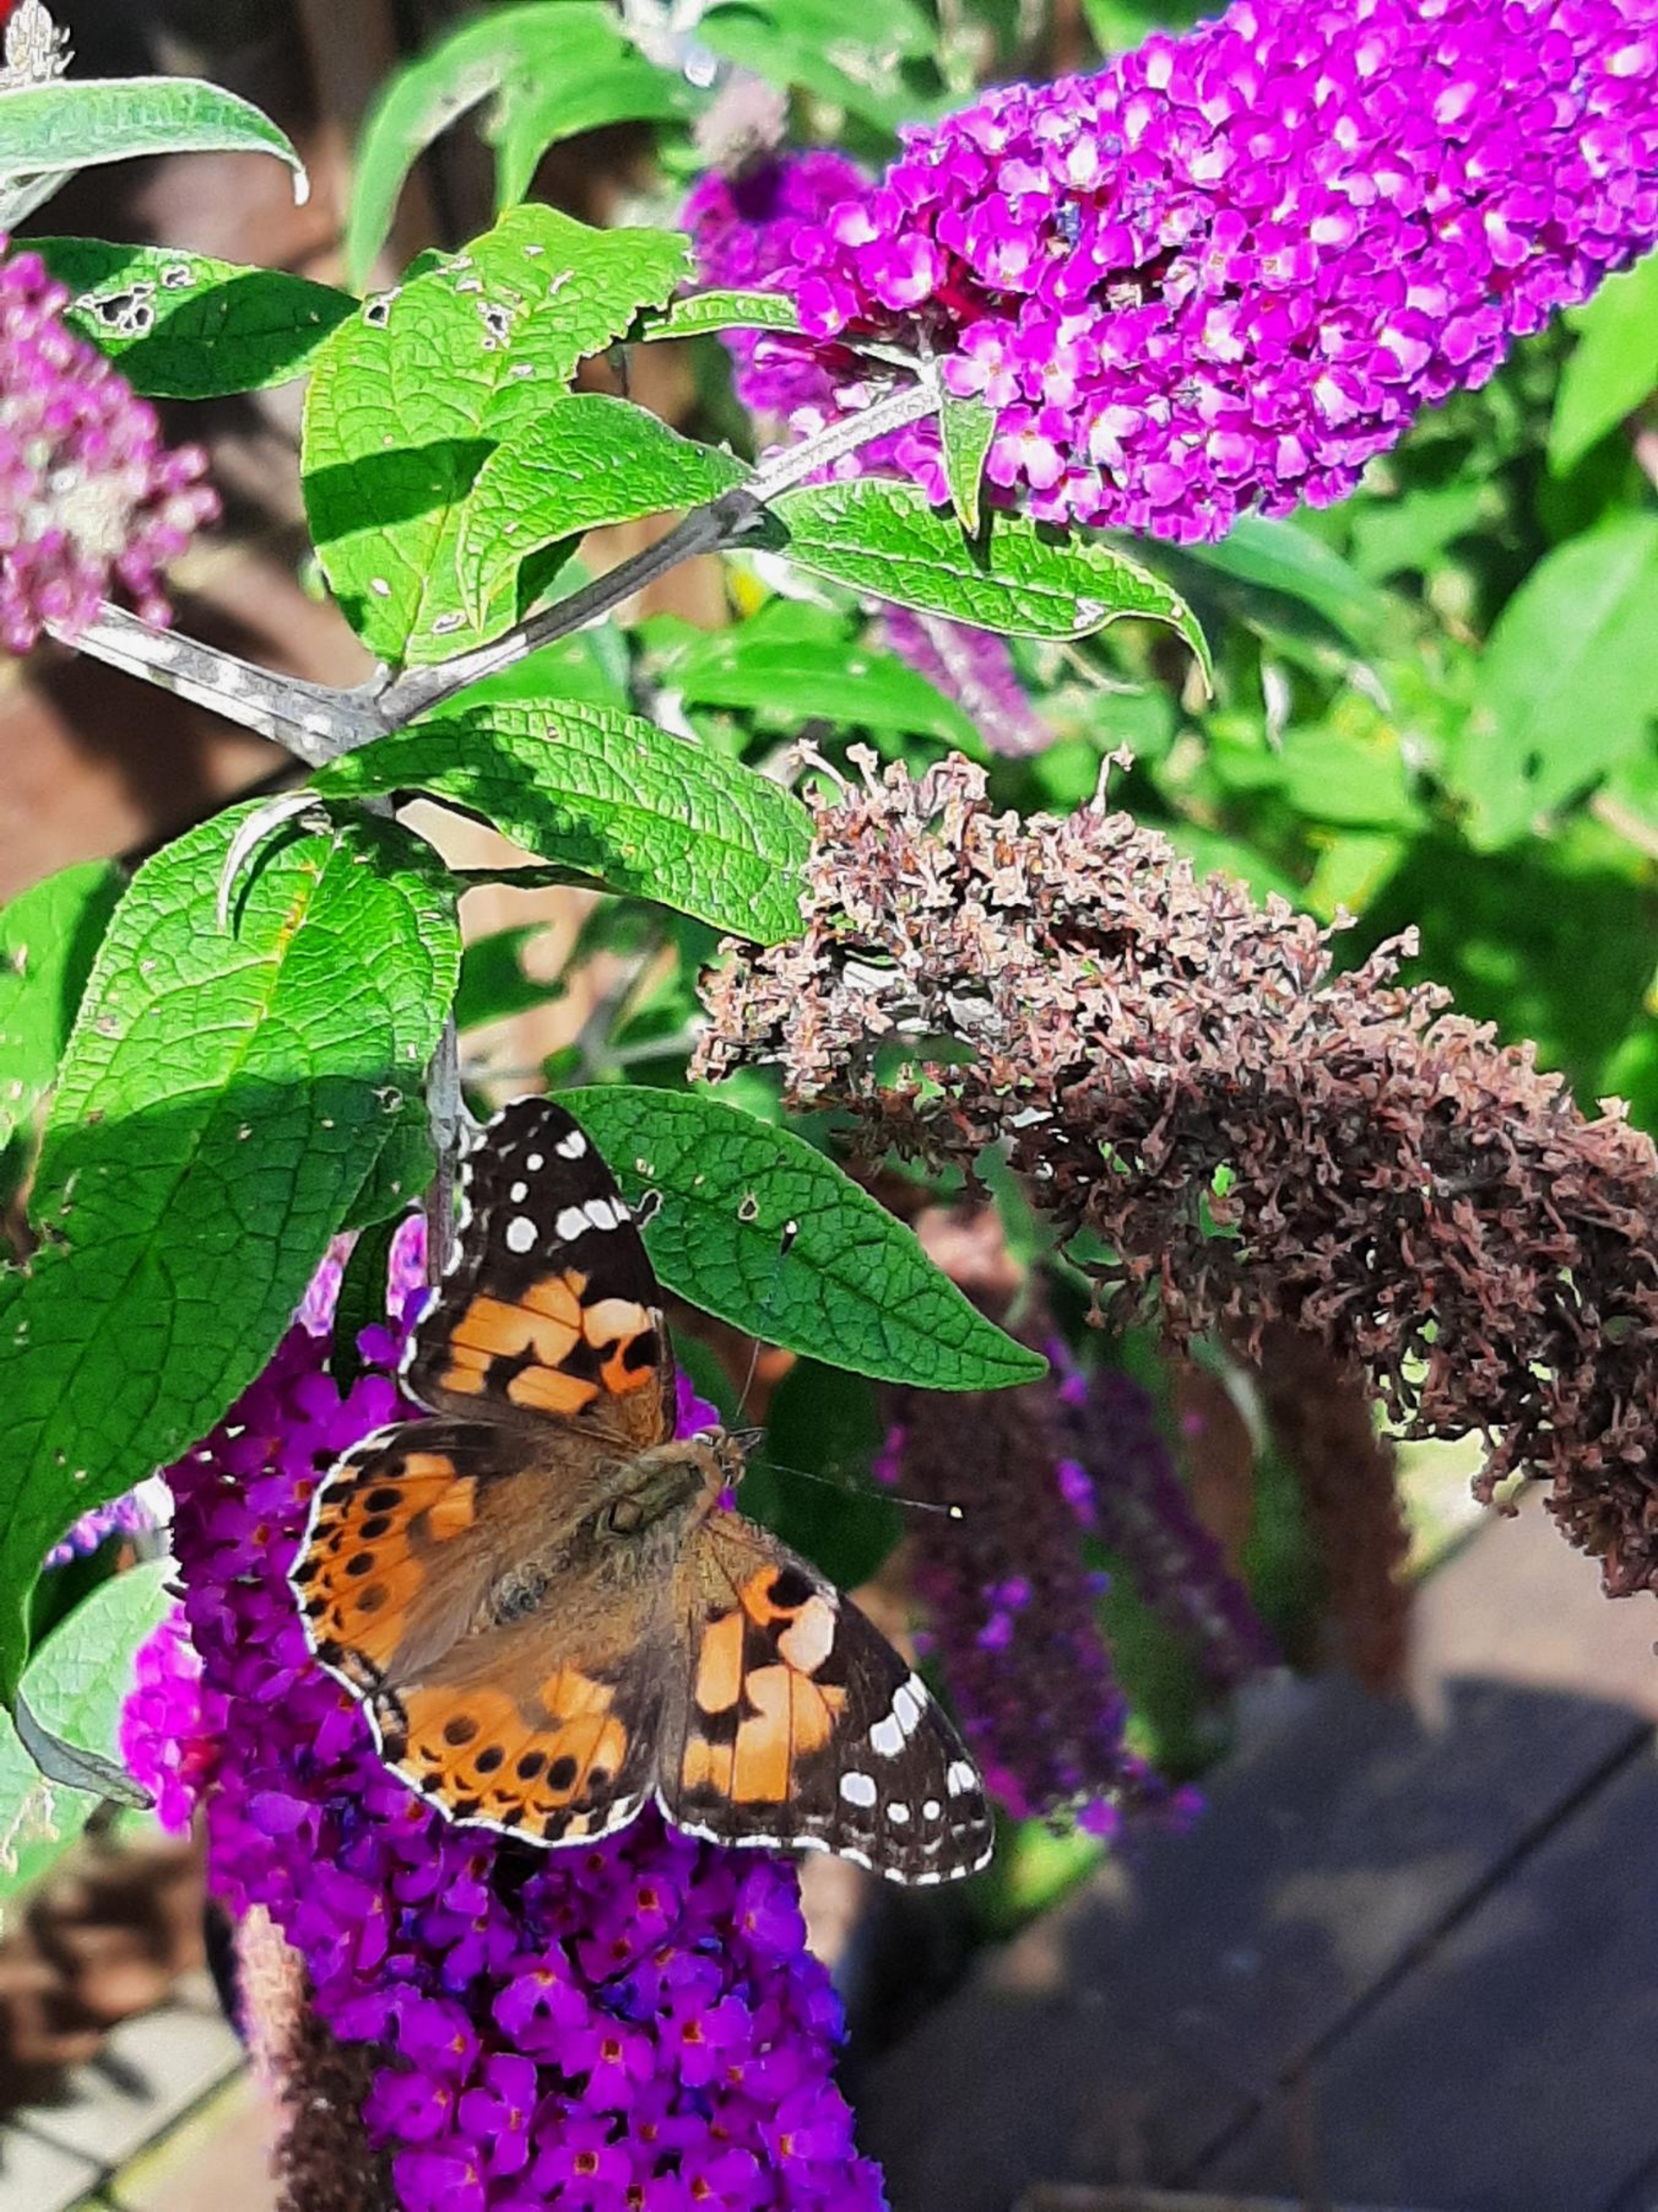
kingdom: Animalia
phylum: Arthropoda
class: Insecta
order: Lepidoptera
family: Nymphalidae
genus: Aglais
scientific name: Aglais io
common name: Dagpåfugleøje
